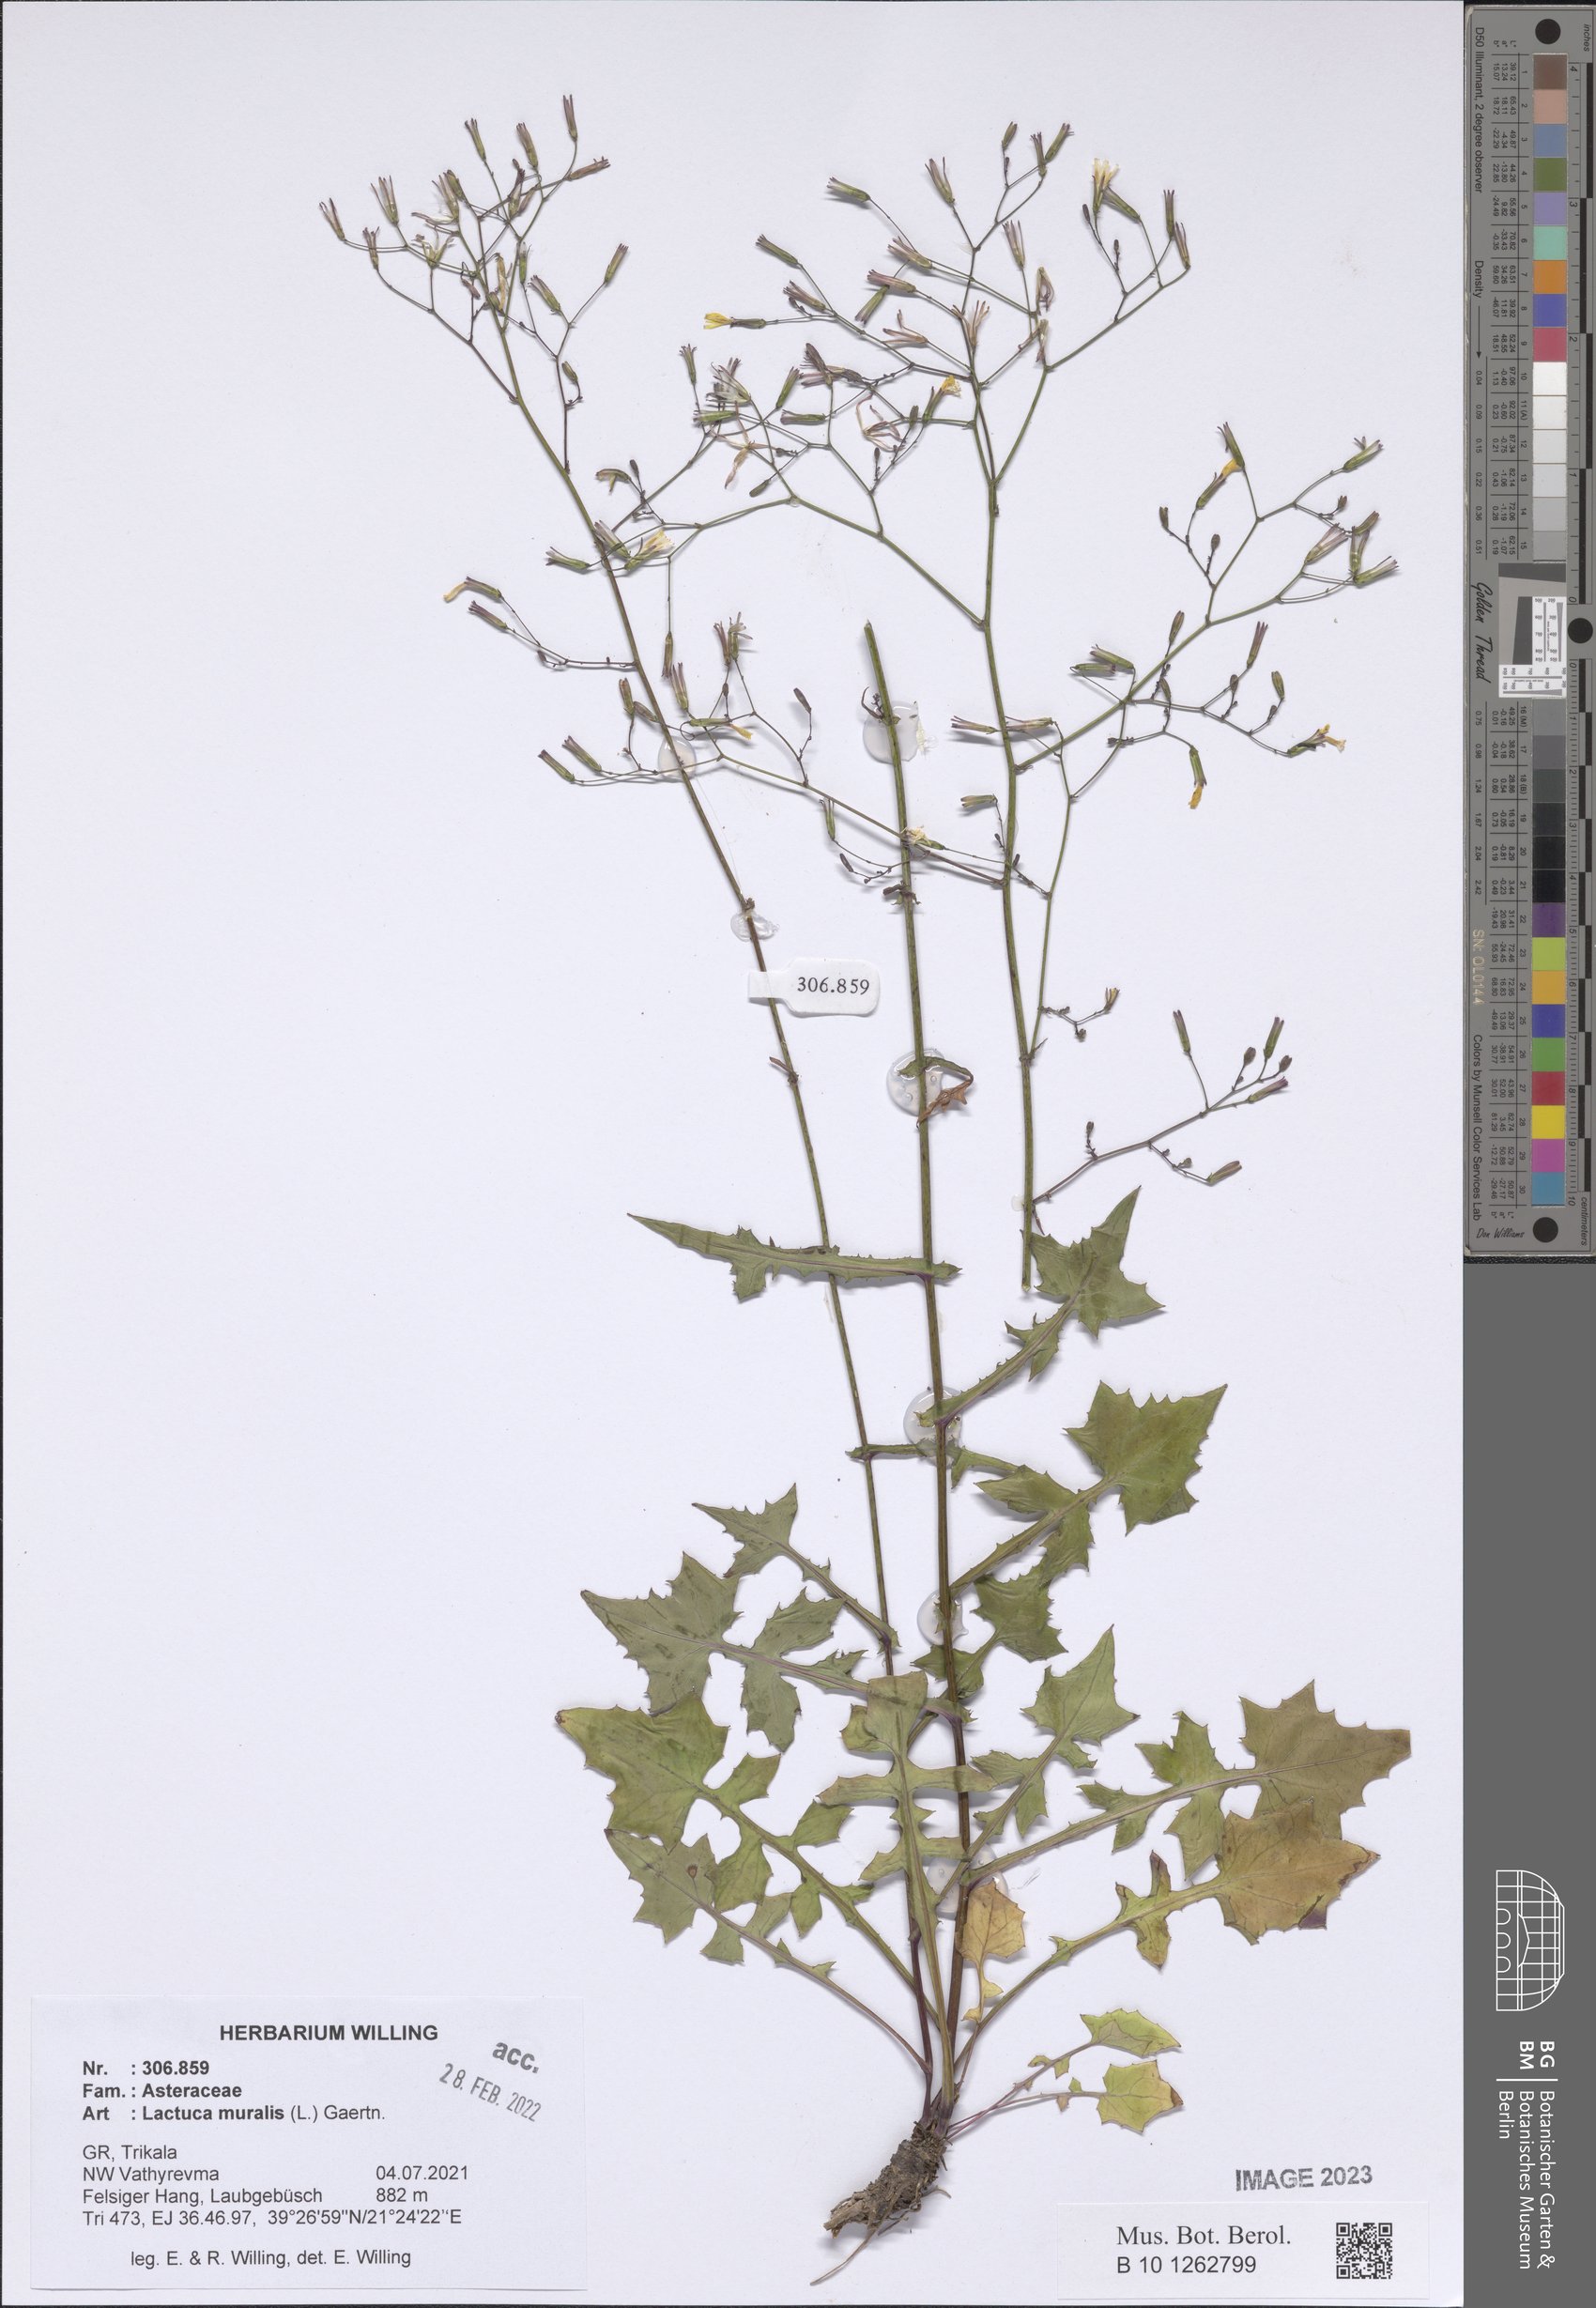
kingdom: Plantae
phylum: Tracheophyta
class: Magnoliopsida
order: Asterales
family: Asteraceae
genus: Mycelis
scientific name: Mycelis muralis
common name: Wall lettuce
